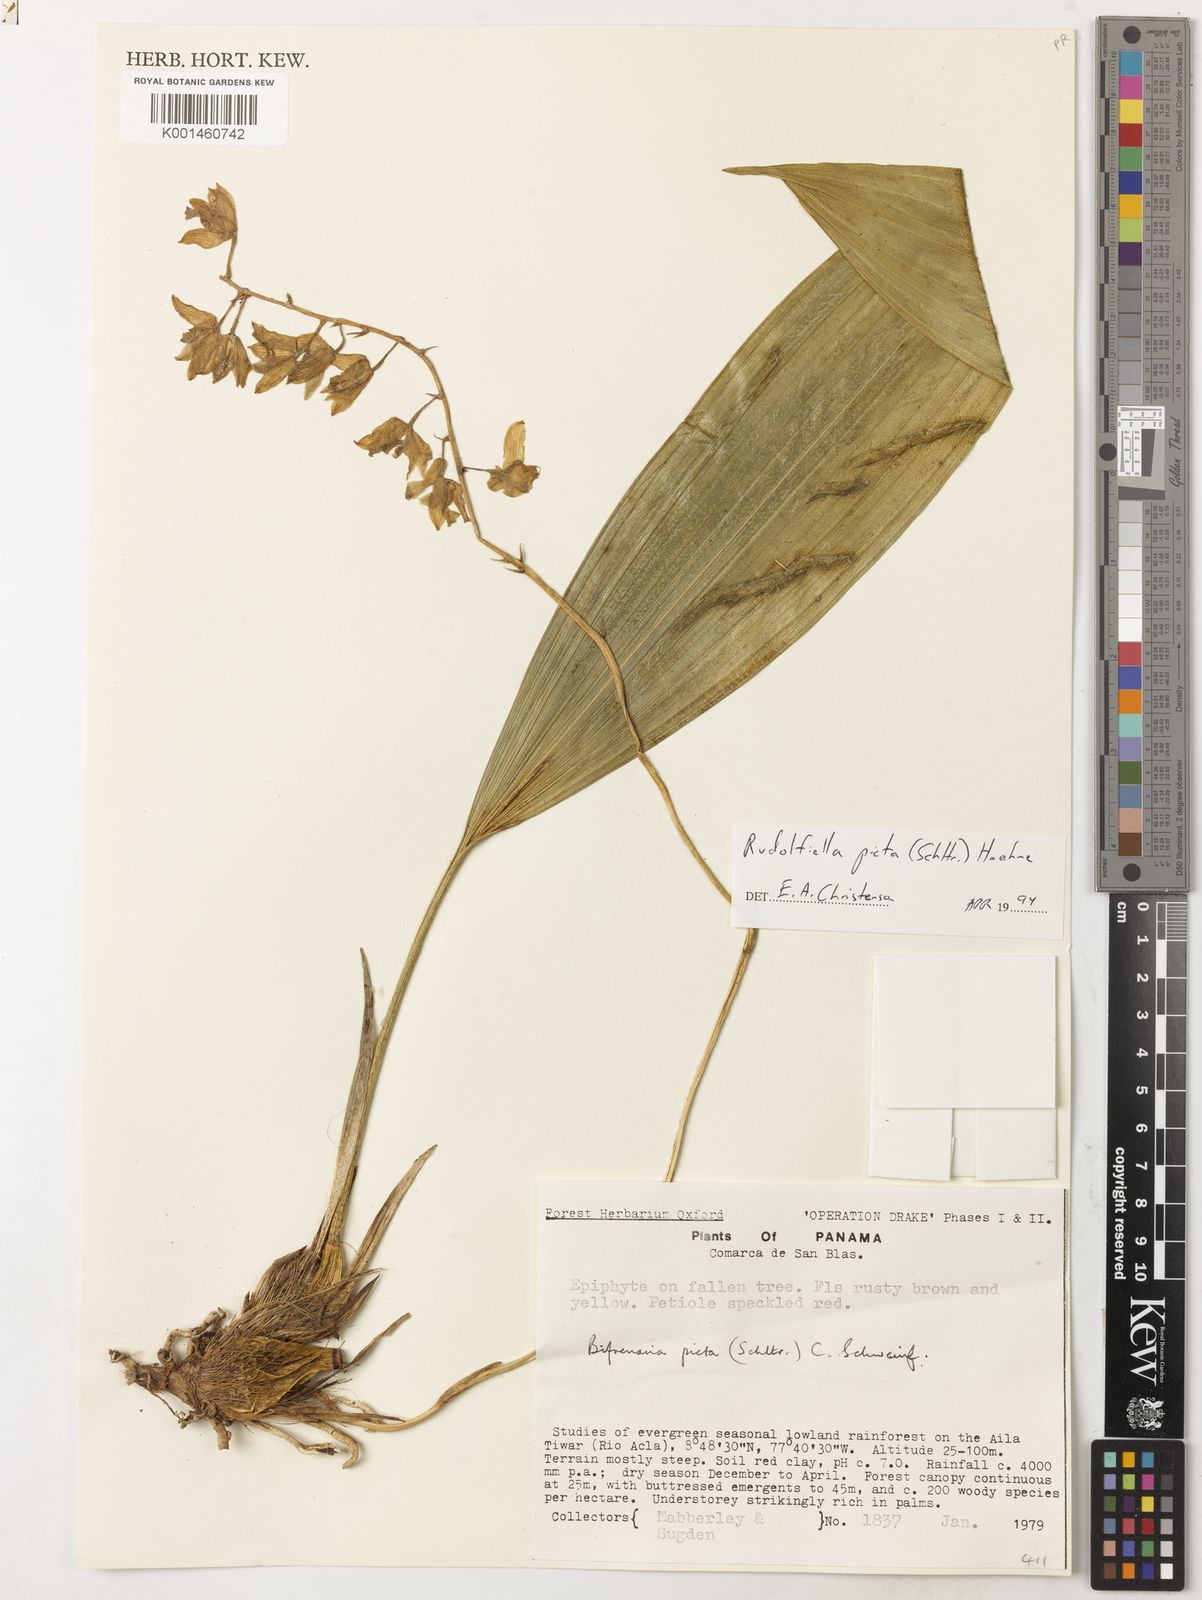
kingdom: Plantae
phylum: Tracheophyta
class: Liliopsida
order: Asparagales
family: Orchidaceae
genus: Rudolfiella
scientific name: Rudolfiella picta
